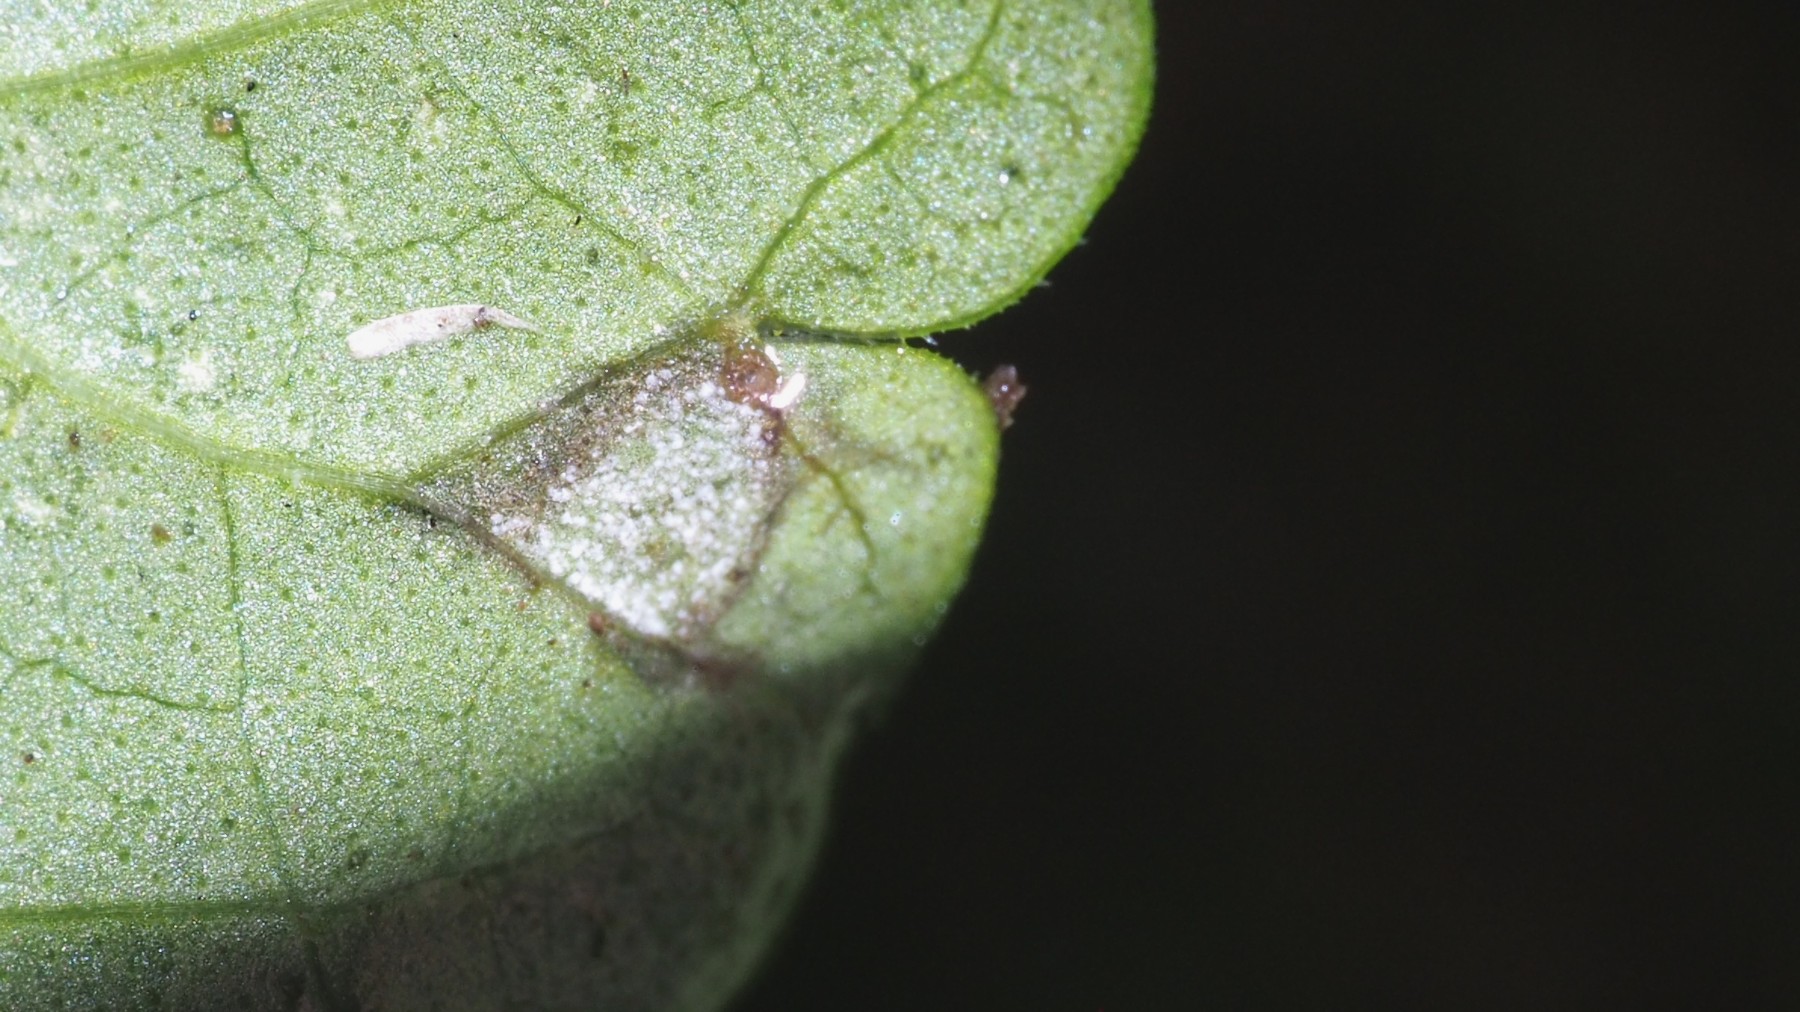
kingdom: Fungi
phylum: Ascomycota
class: Dothideomycetes
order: Mycosphaerellales
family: Mycosphaerellaceae
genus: Ramularia
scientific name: Ramularia glechomatis
